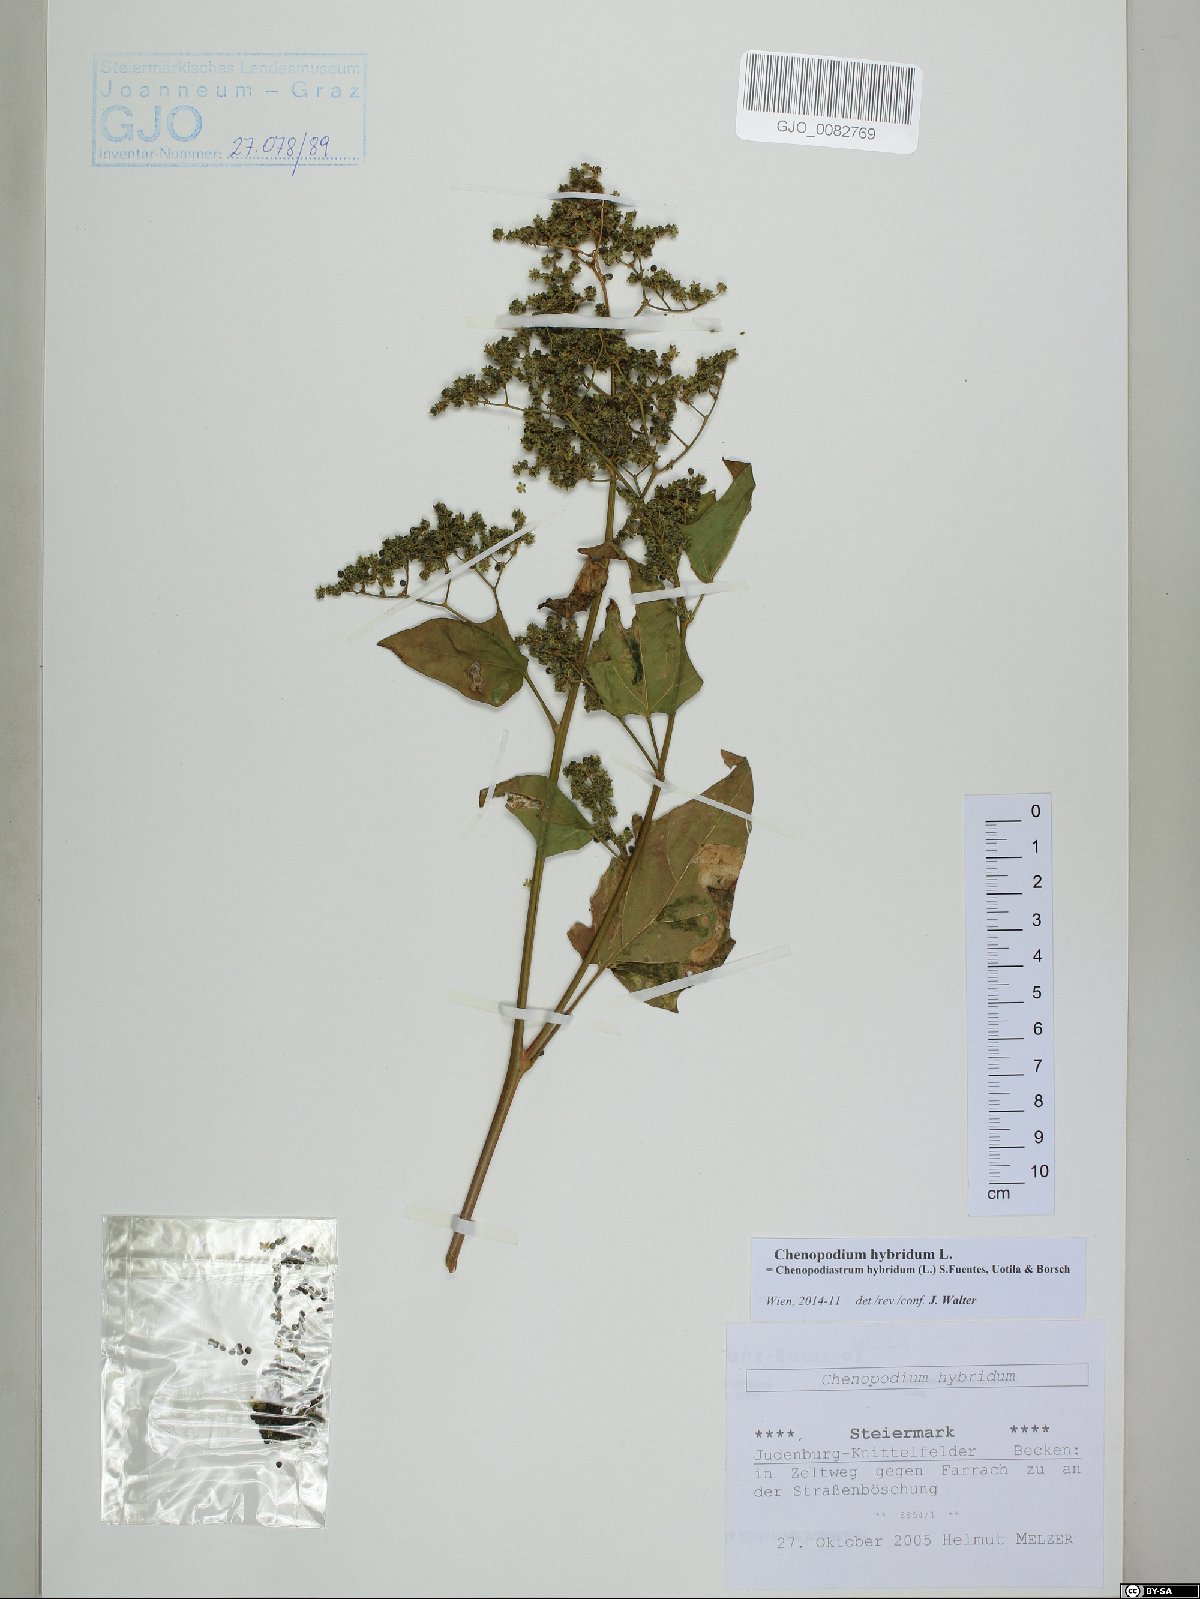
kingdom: Plantae
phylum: Tracheophyta
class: Magnoliopsida
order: Caryophyllales
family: Amaranthaceae
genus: Chenopodiastrum
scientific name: Chenopodiastrum hybridum
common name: Mapleleaf goosefoot
